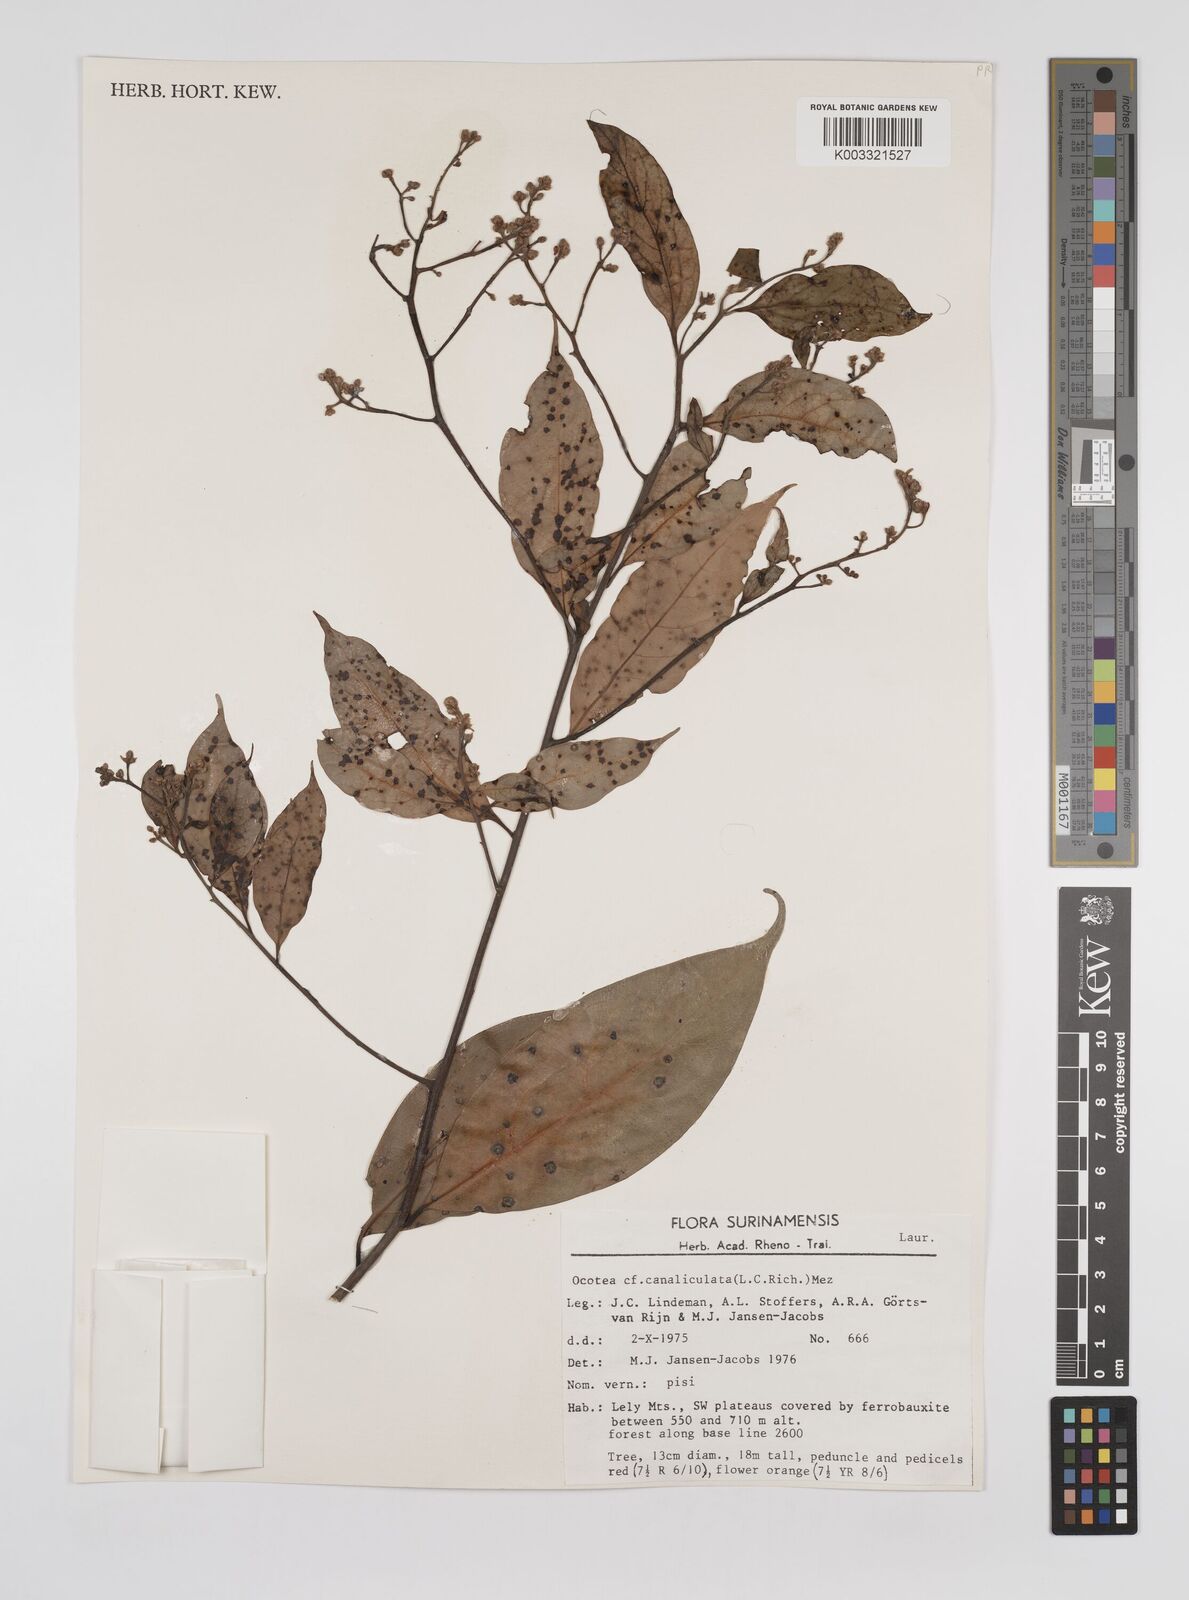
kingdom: Plantae
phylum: Tracheophyta
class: Magnoliopsida
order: Laurales
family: Lauraceae
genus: Ocotea
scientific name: Ocotea canaliculata
